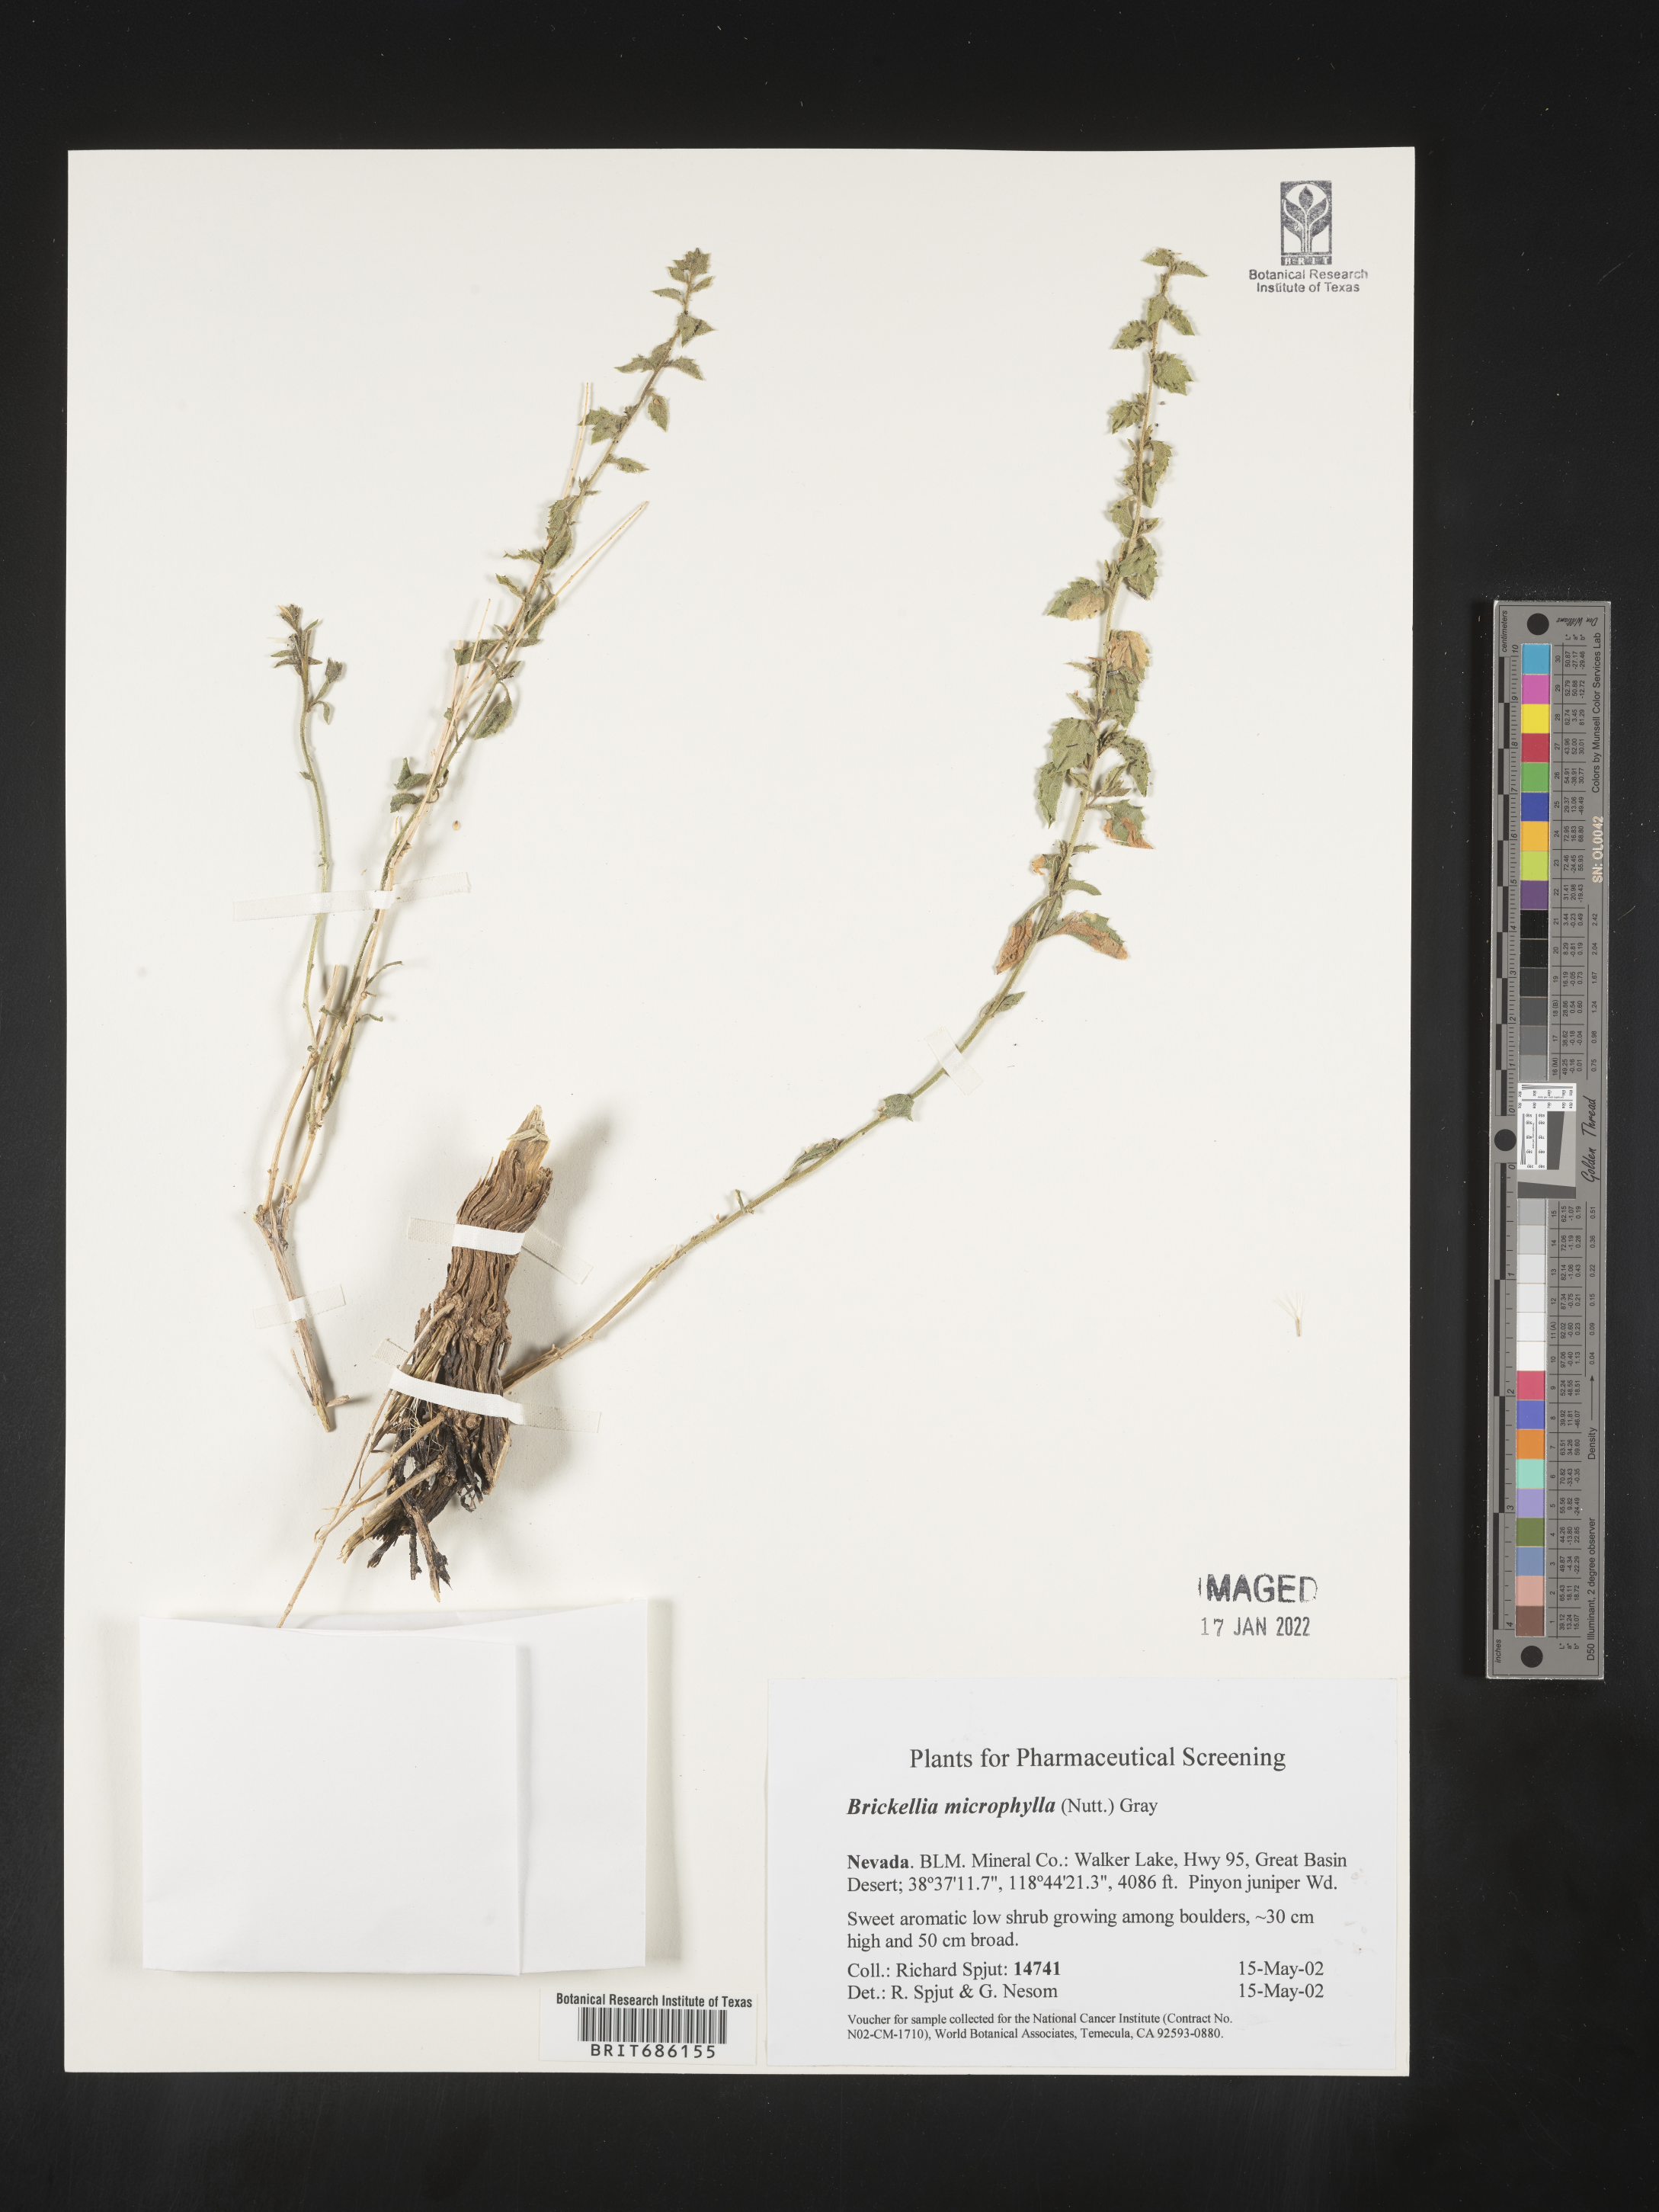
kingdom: Plantae
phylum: Tracheophyta
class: Magnoliopsida
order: Asterales
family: Asteraceae
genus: Brickellia
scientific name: Brickellia microphylla
